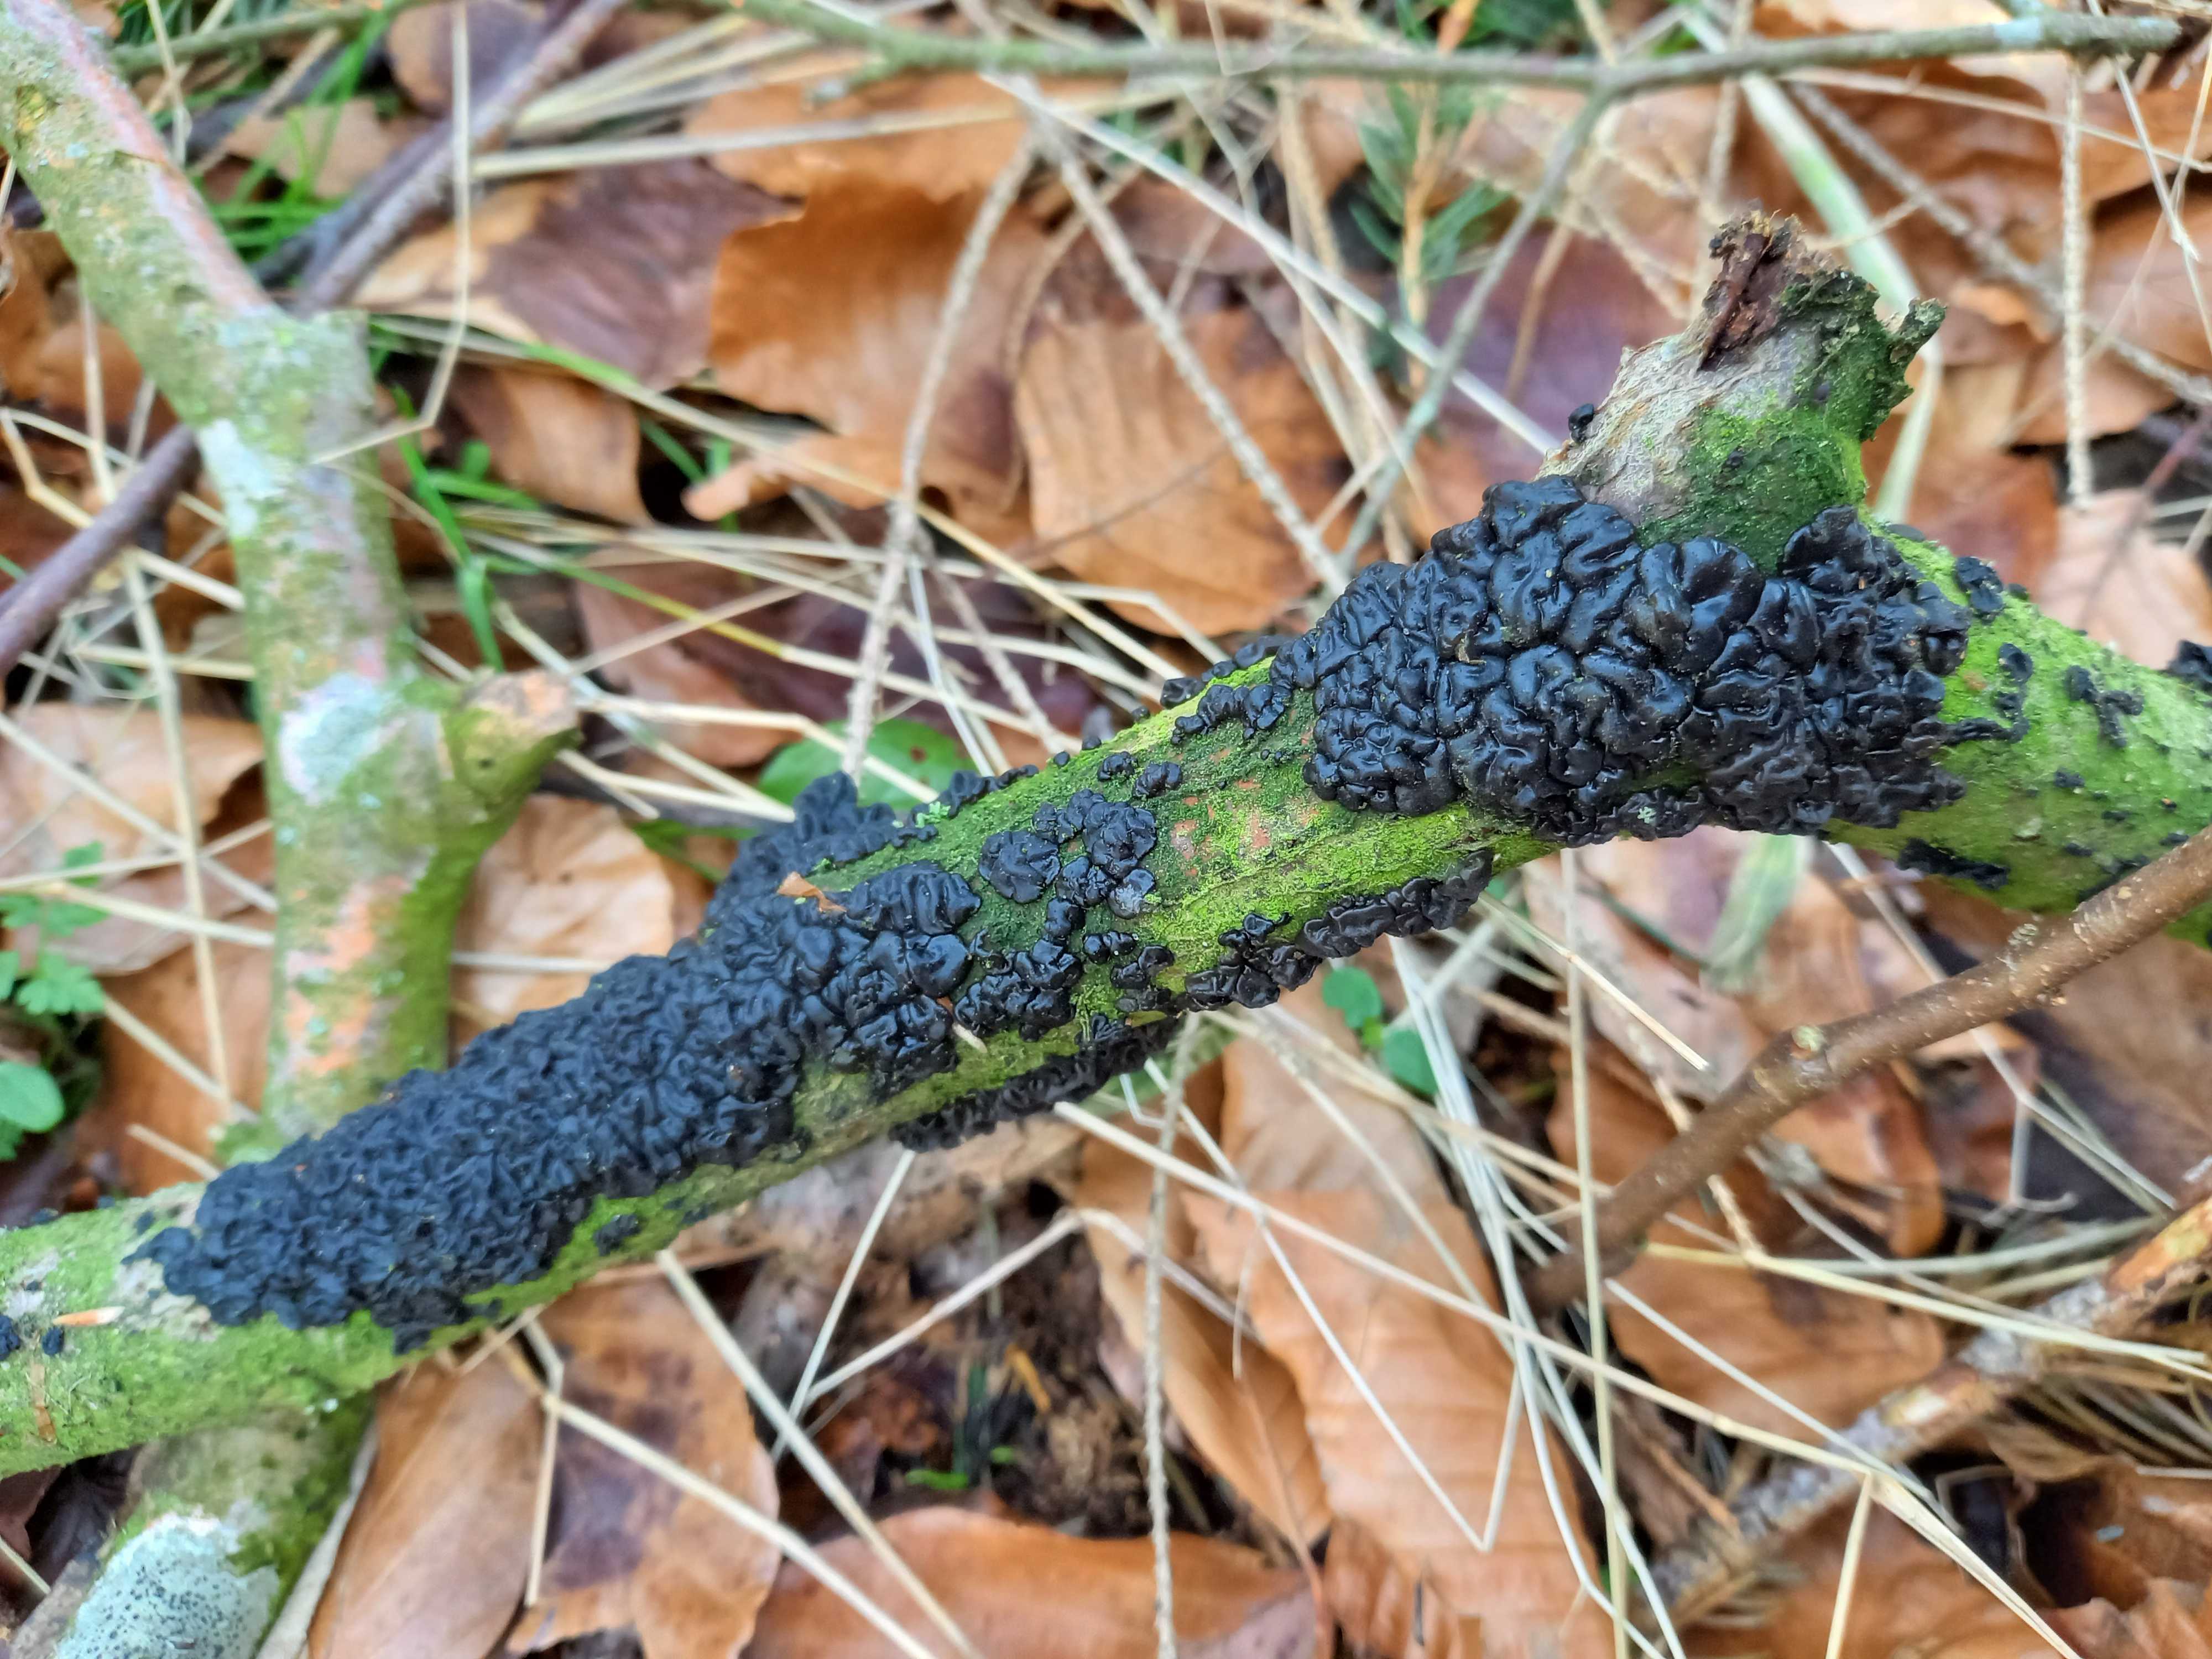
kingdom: Fungi
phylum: Basidiomycota
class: Agaricomycetes
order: Auriculariales
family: Auriculariaceae
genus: Exidia
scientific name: Exidia nigricans
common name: almindelig bævretop
